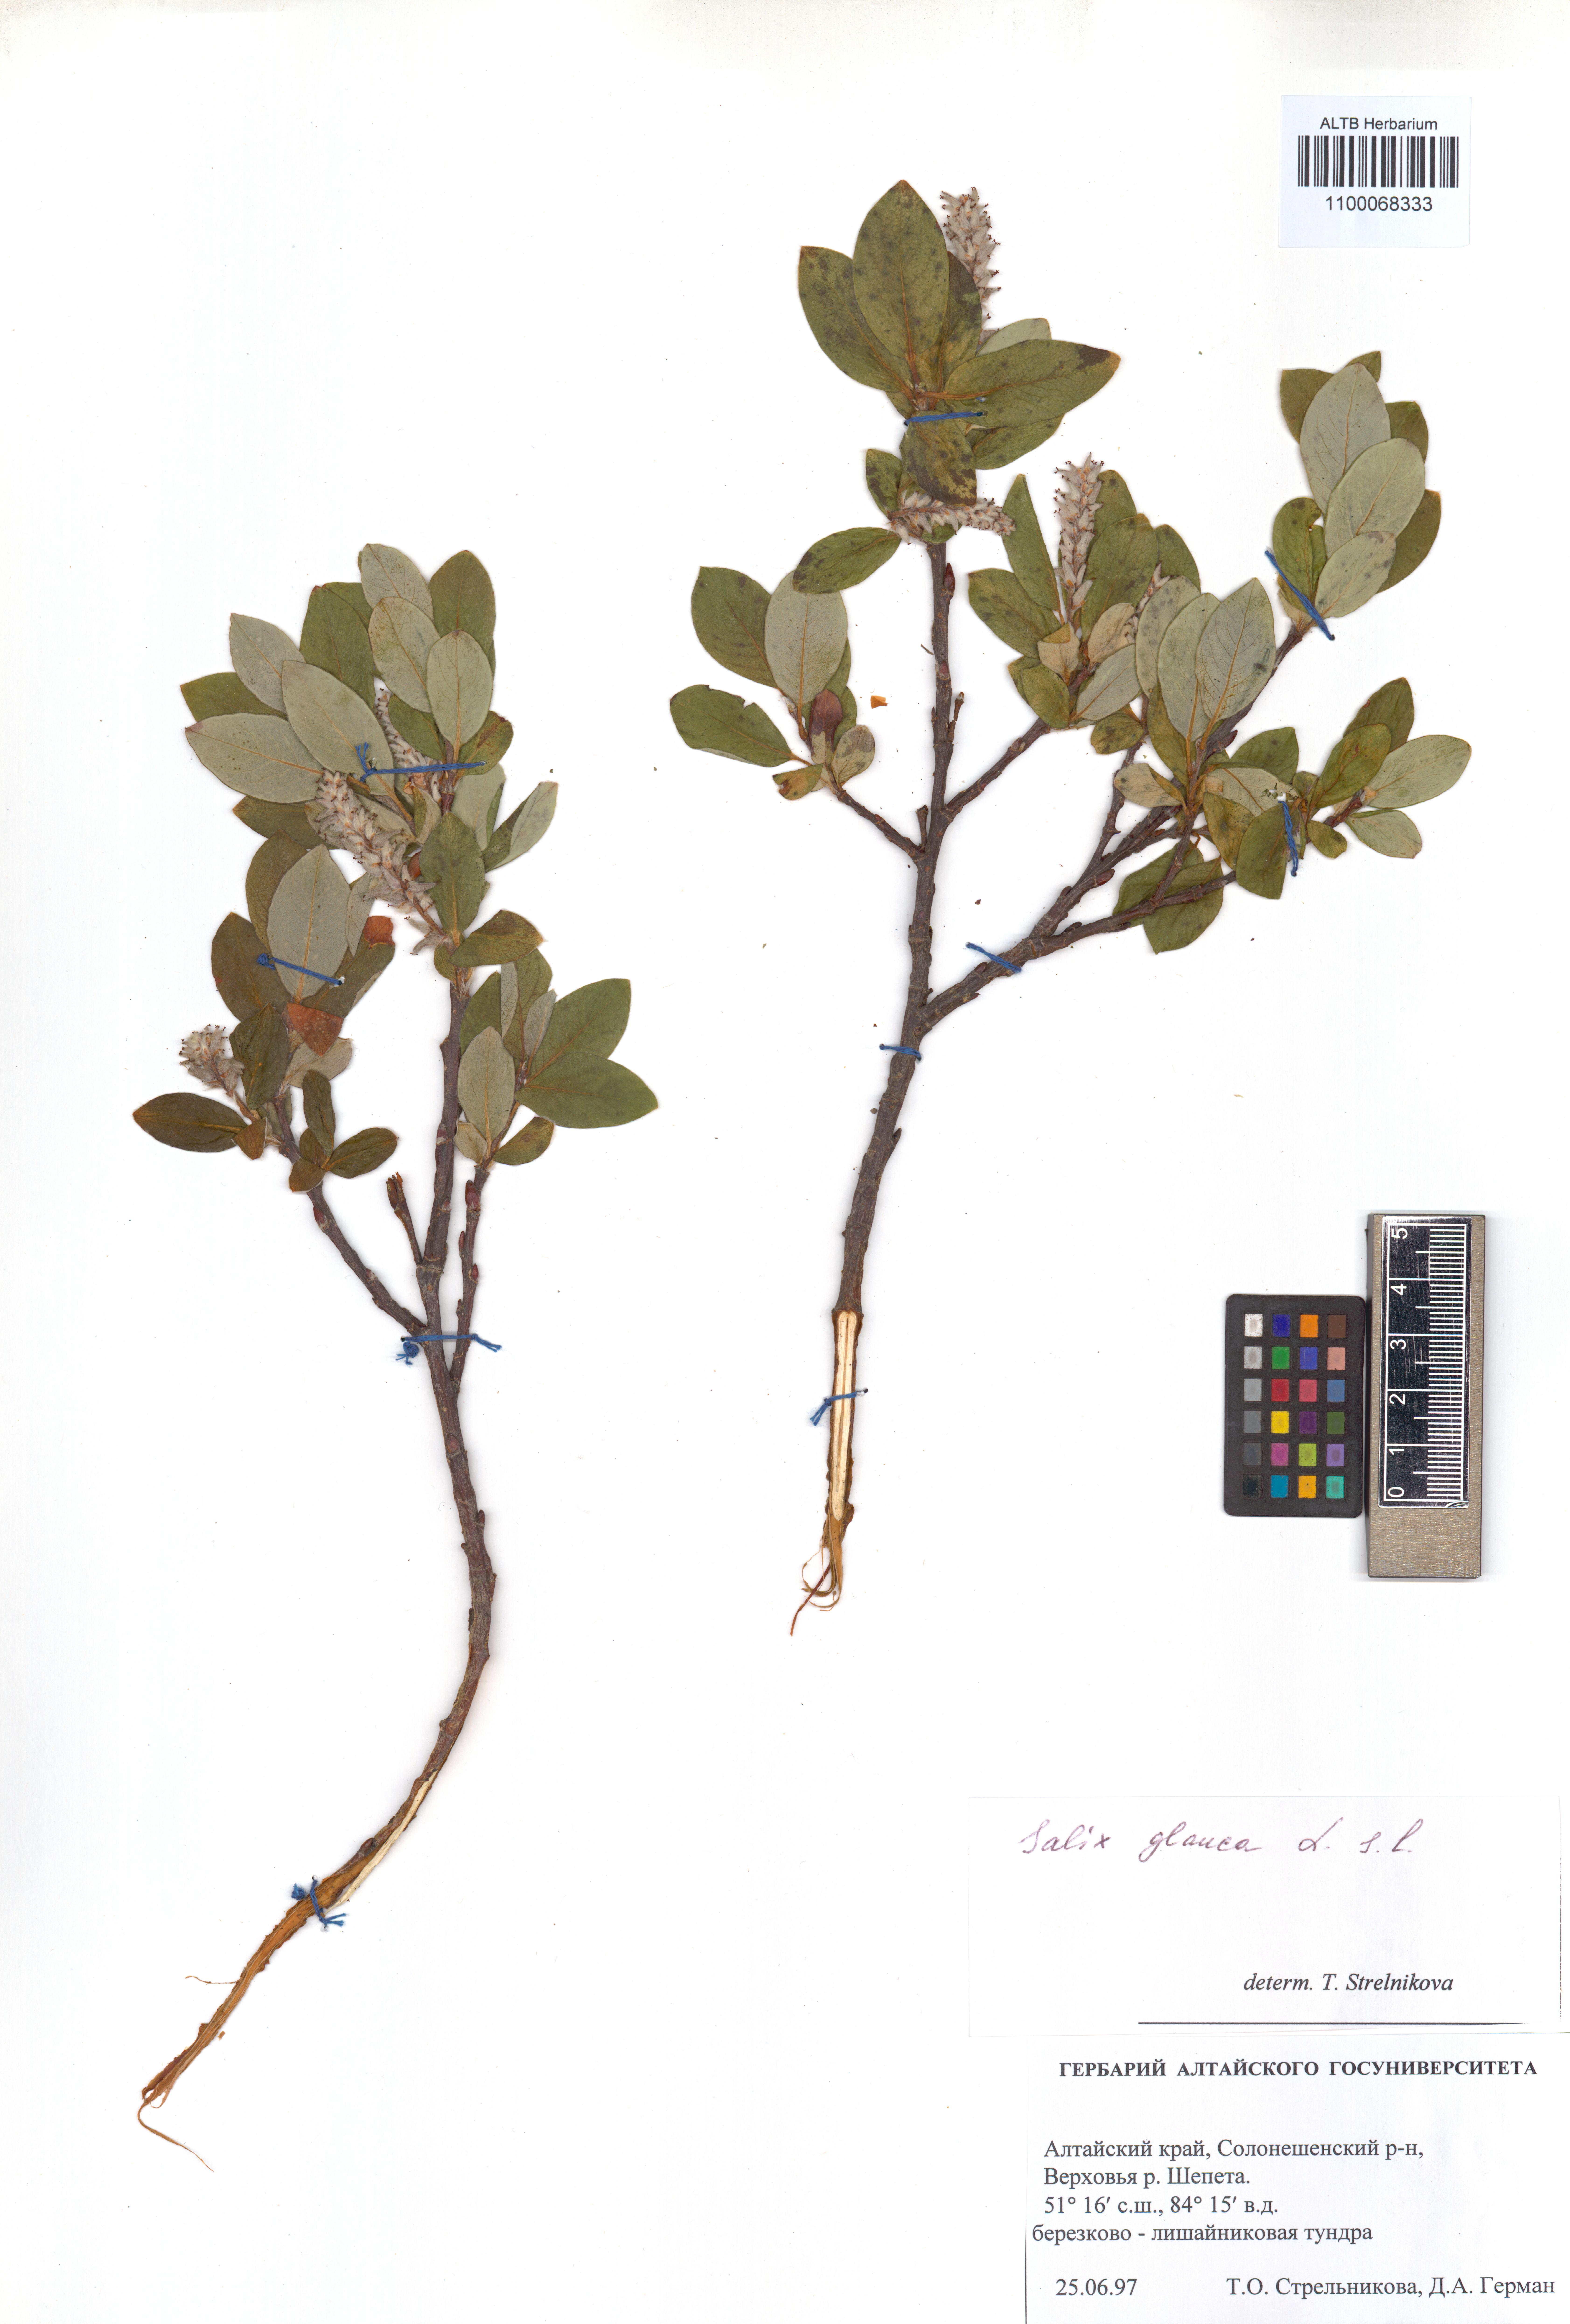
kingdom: Plantae
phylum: Tracheophyta
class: Magnoliopsida
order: Malpighiales
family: Salicaceae
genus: Salix
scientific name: Salix glauca
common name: Glaucous willow
